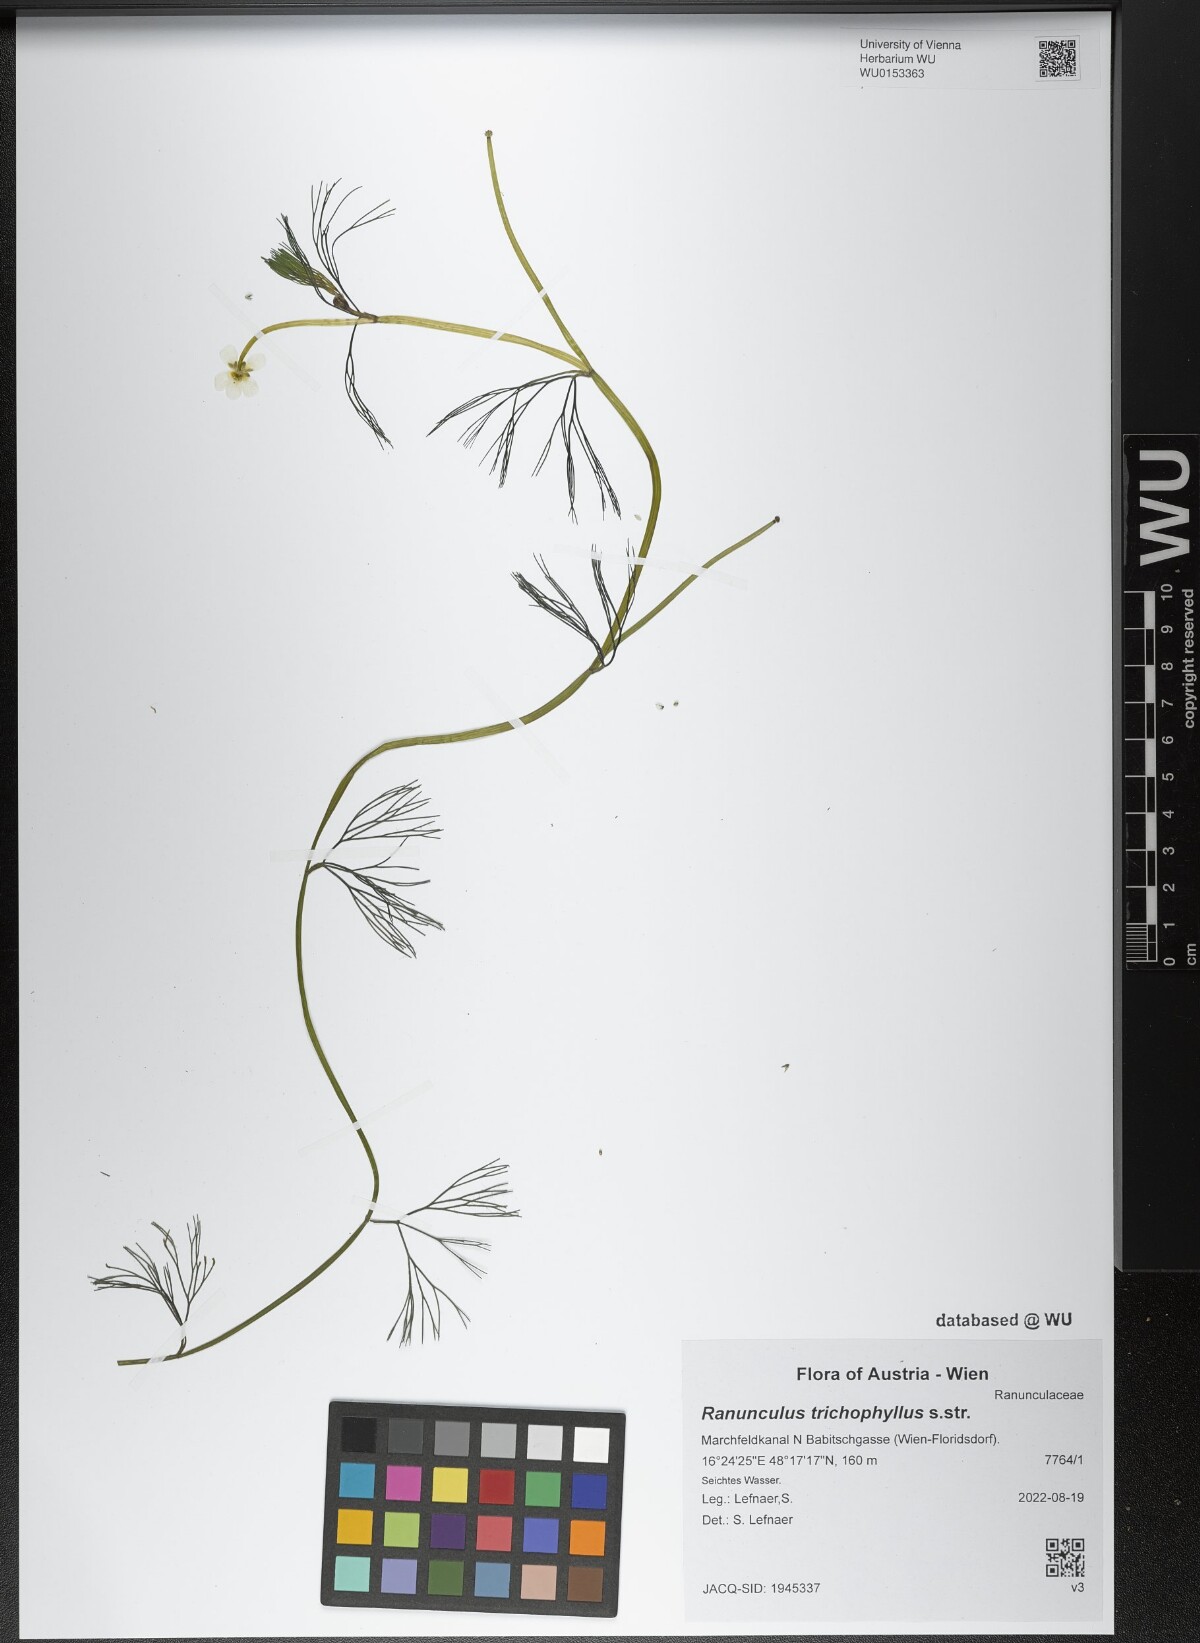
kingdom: Plantae
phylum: Tracheophyta
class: Magnoliopsida
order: Ranunculales
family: Ranunculaceae
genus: Ranunculus
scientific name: Ranunculus trichophyllus
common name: Thread-leaved water-crowfoot
